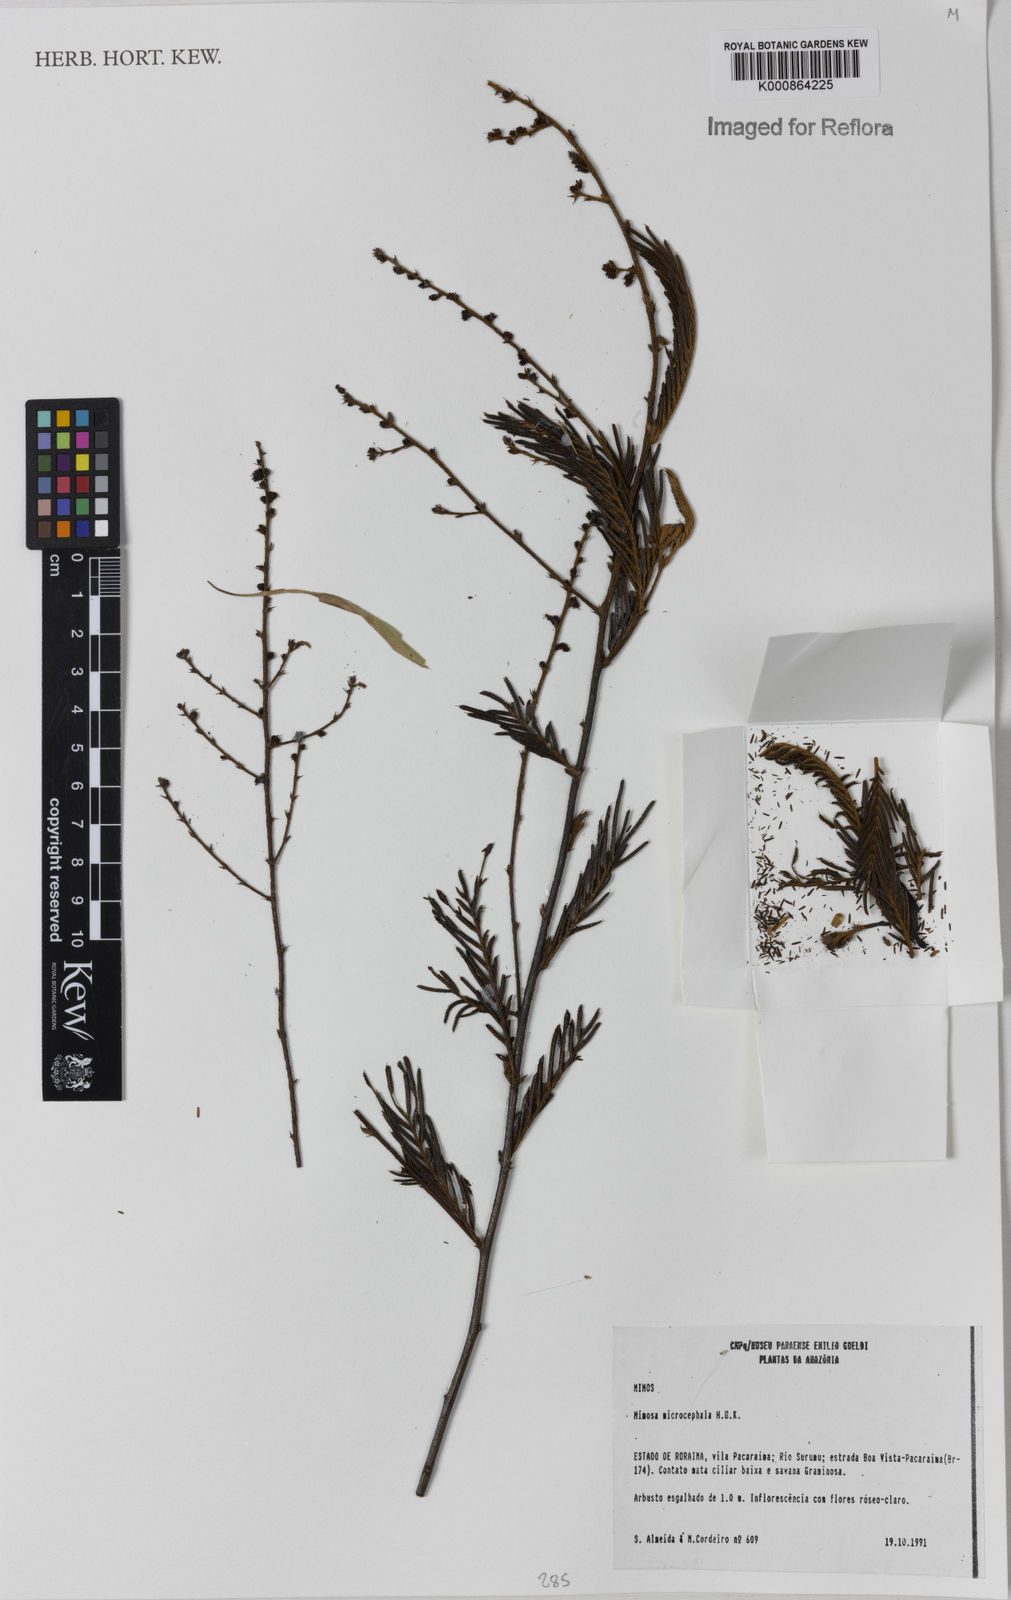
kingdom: Plantae
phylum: Tracheophyta
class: Magnoliopsida
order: Fabales
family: Fabaceae
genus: Mimosa
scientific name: Mimosa microcephala
